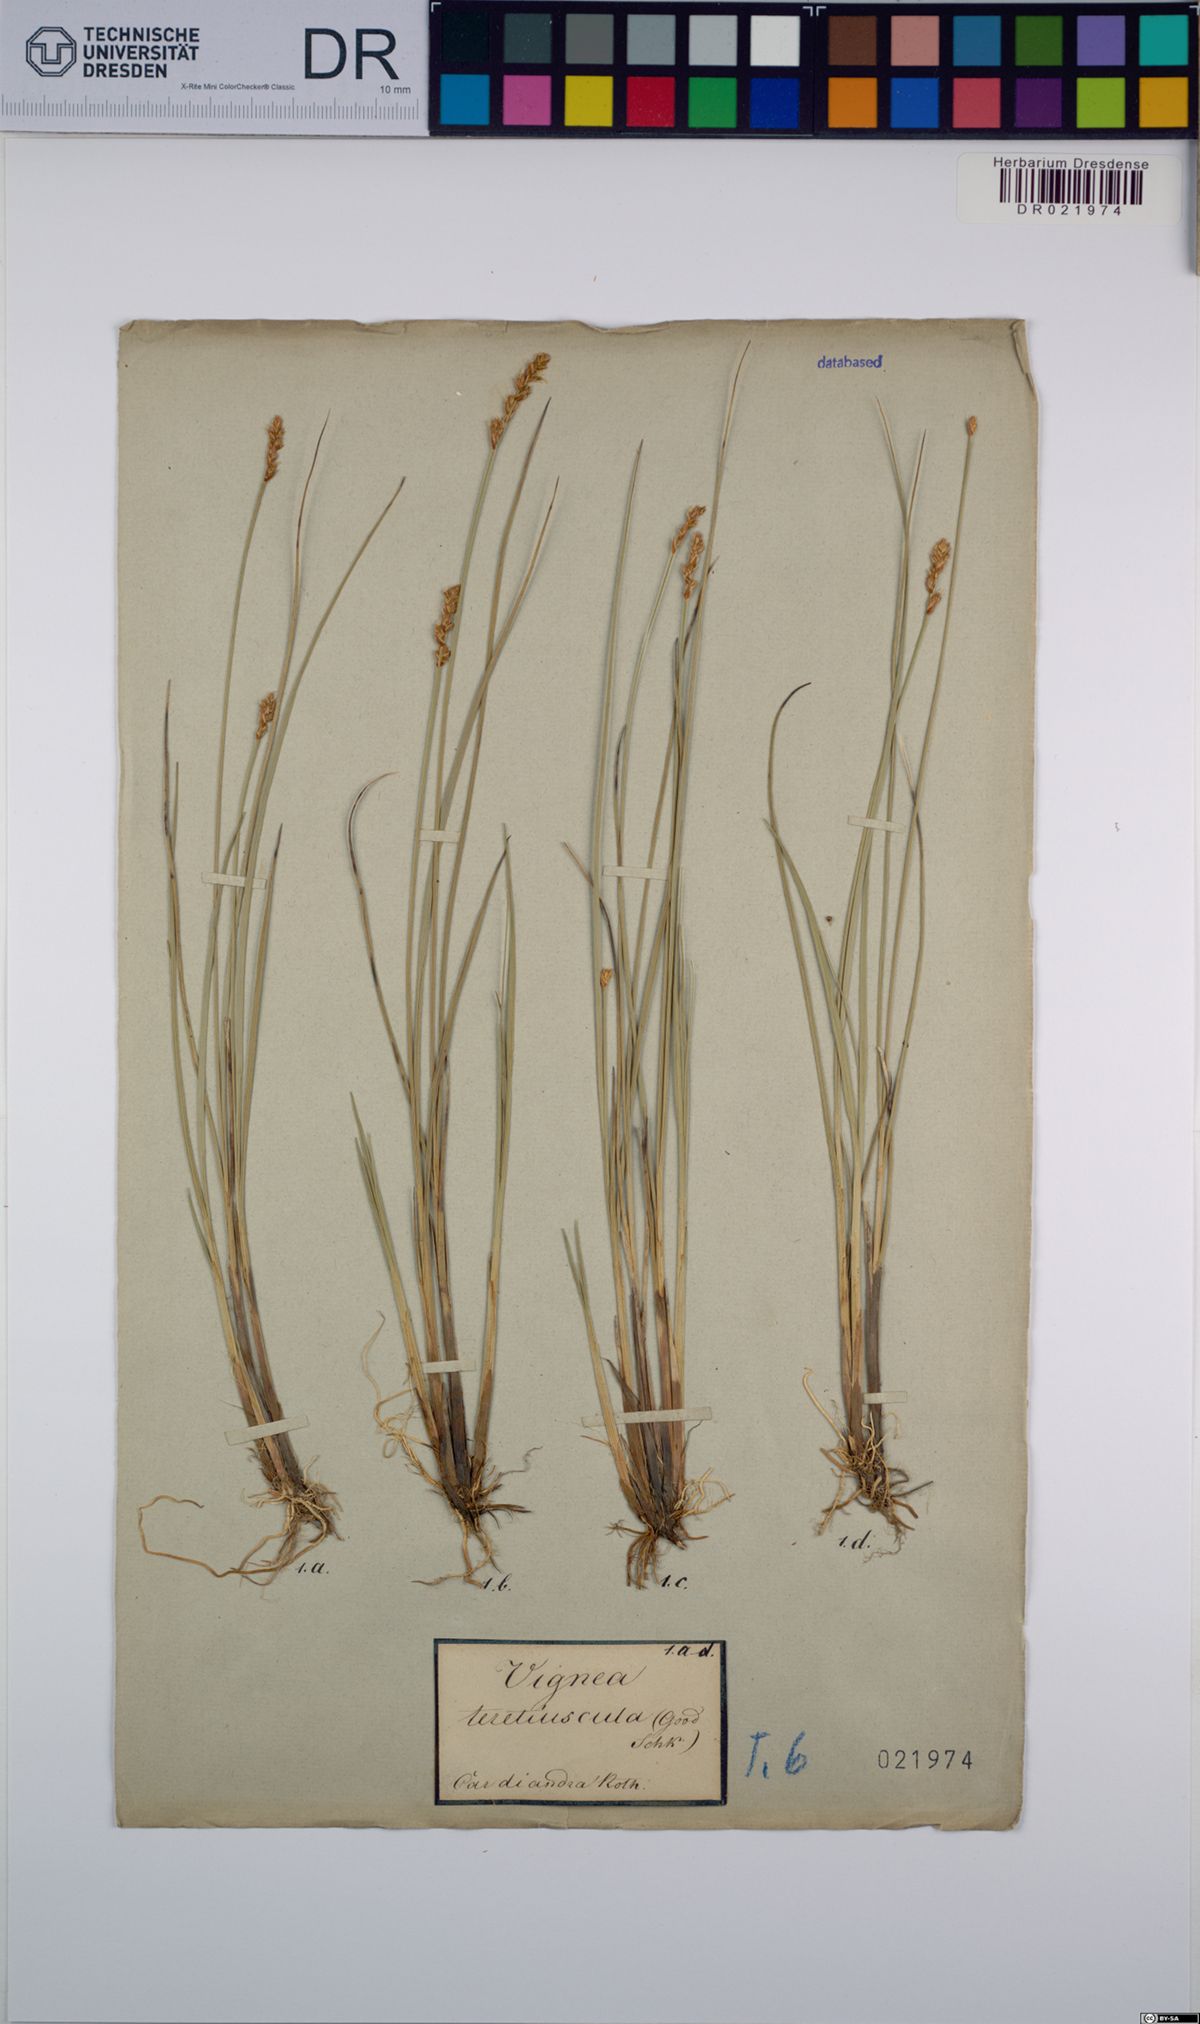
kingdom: Plantae
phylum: Tracheophyta
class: Liliopsida
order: Poales
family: Cyperaceae
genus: Carex
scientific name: Carex diandra
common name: Lesser tussock-sedge
